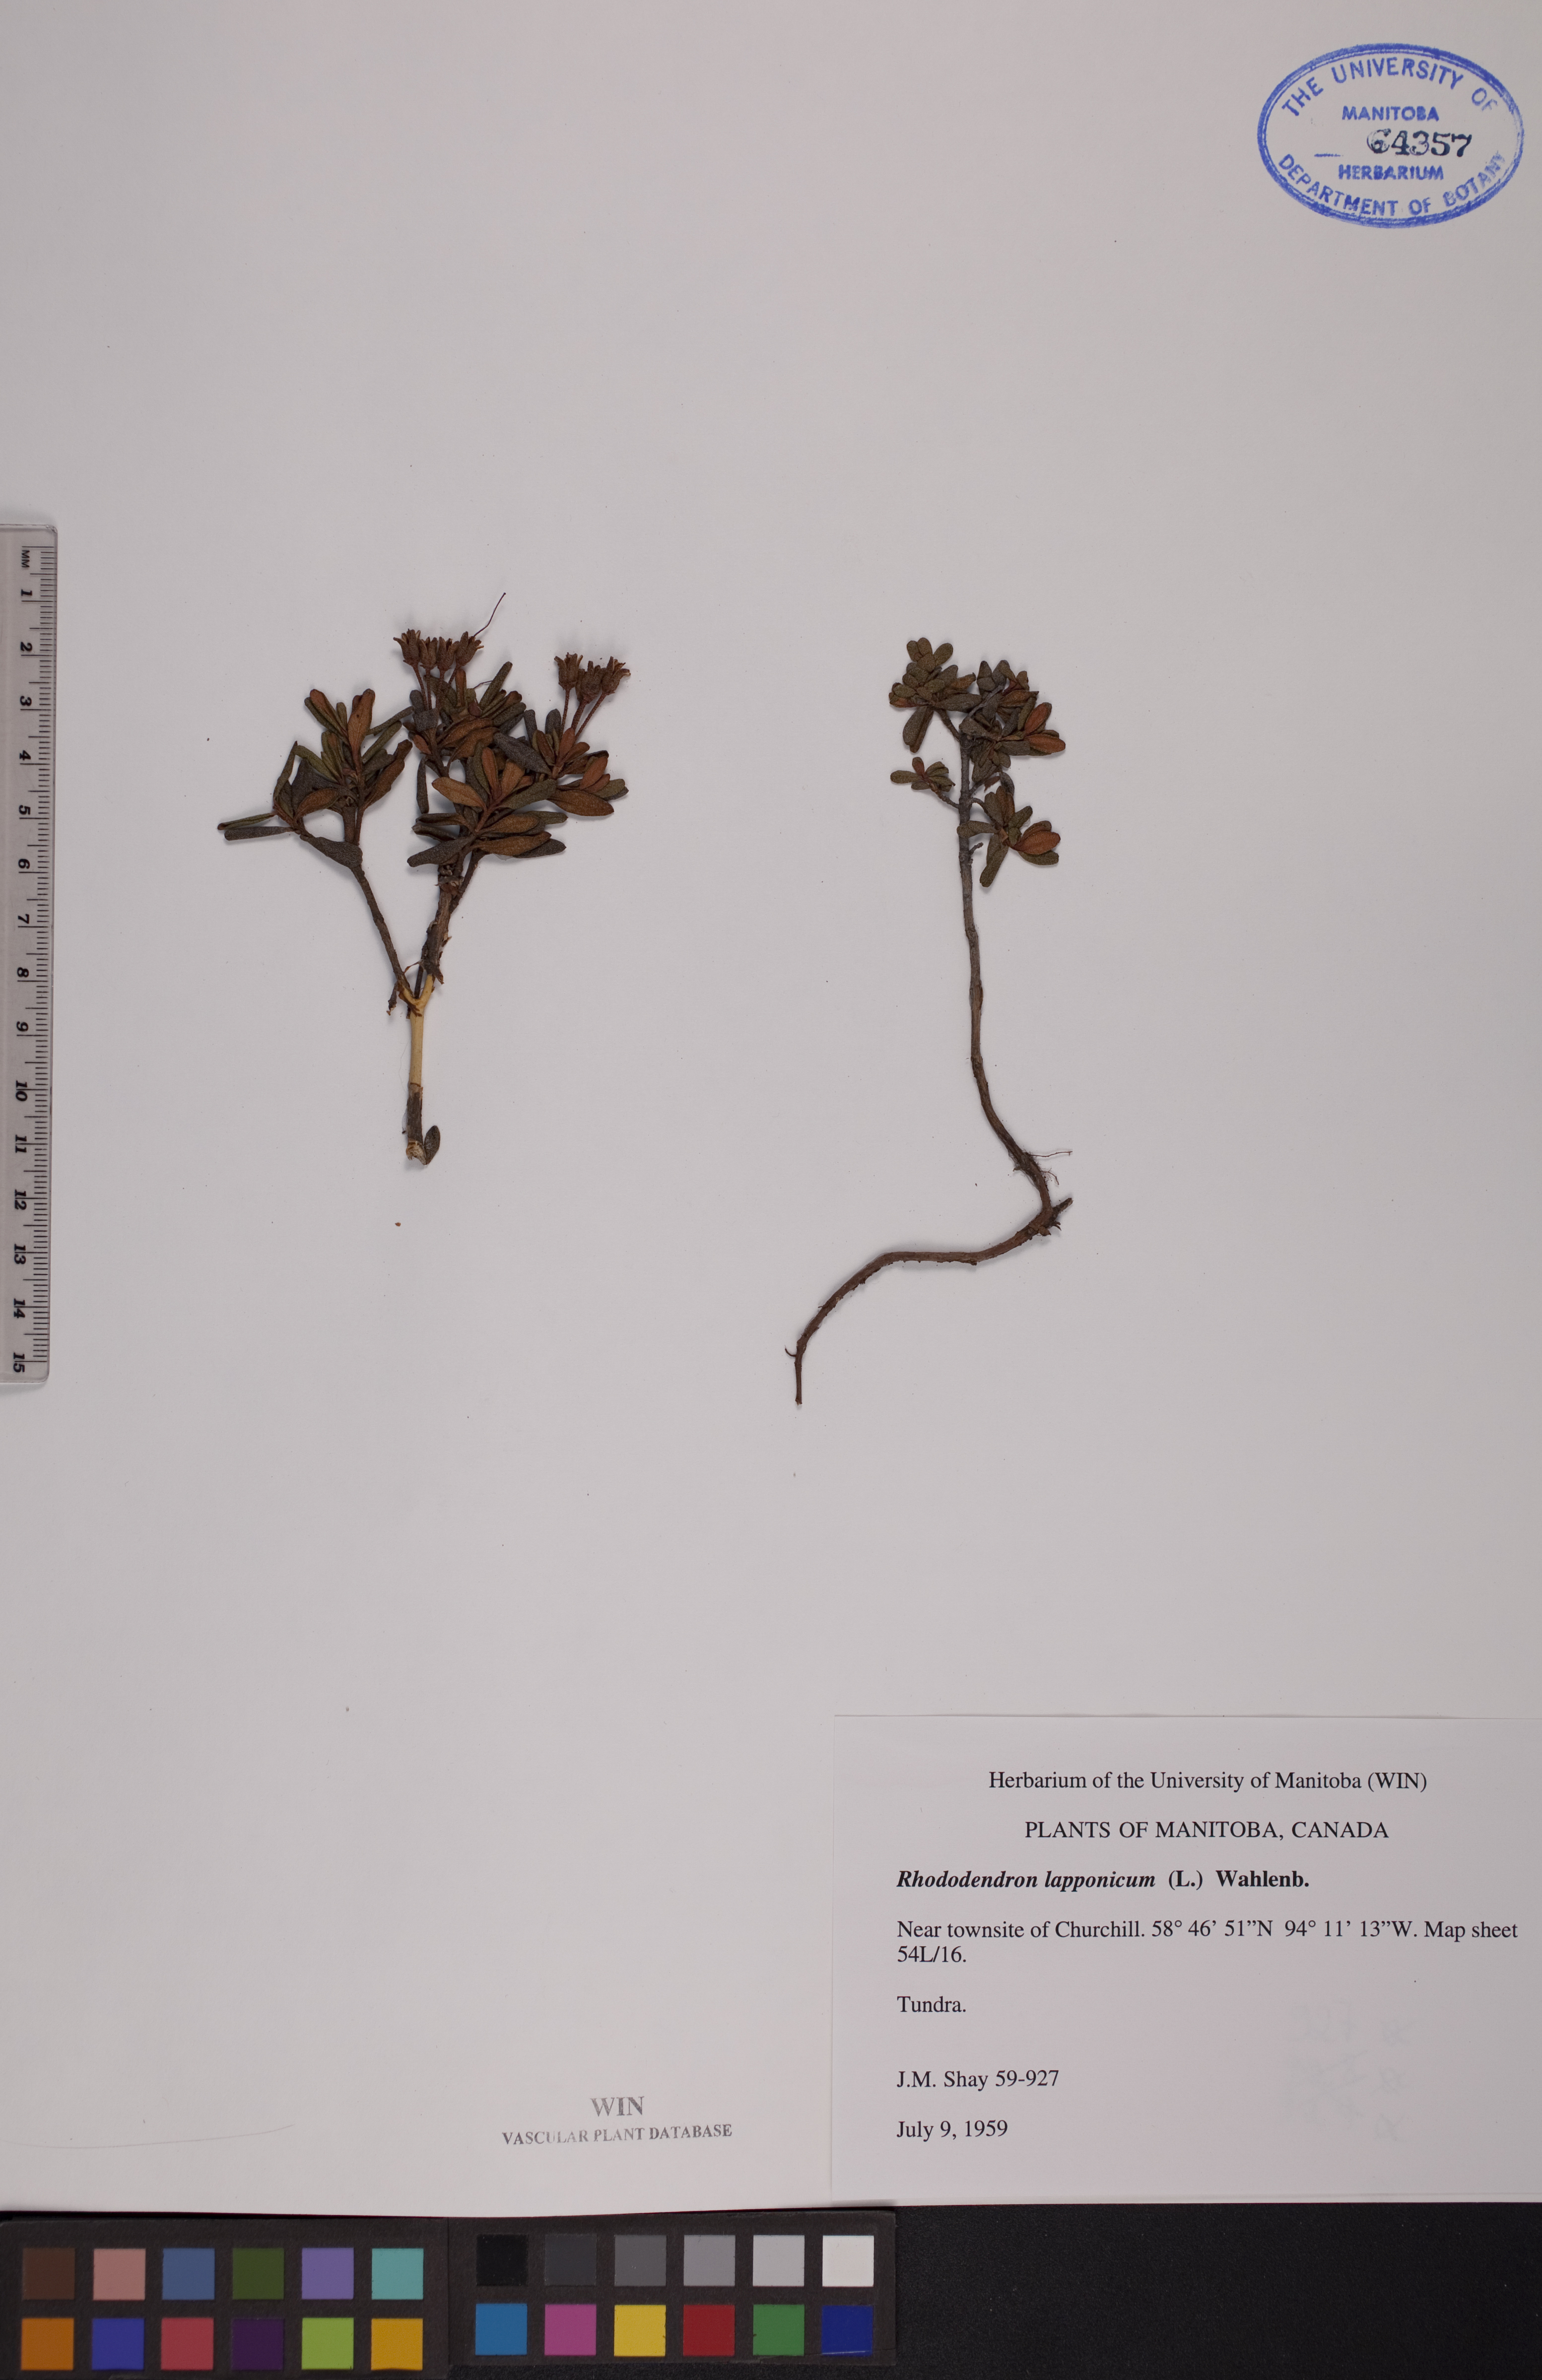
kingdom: Plantae
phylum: Tracheophyta
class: Magnoliopsida
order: Ericales
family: Ericaceae
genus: Rhododendron
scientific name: Rhododendron lapponicum
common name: Lapland rhododendron
